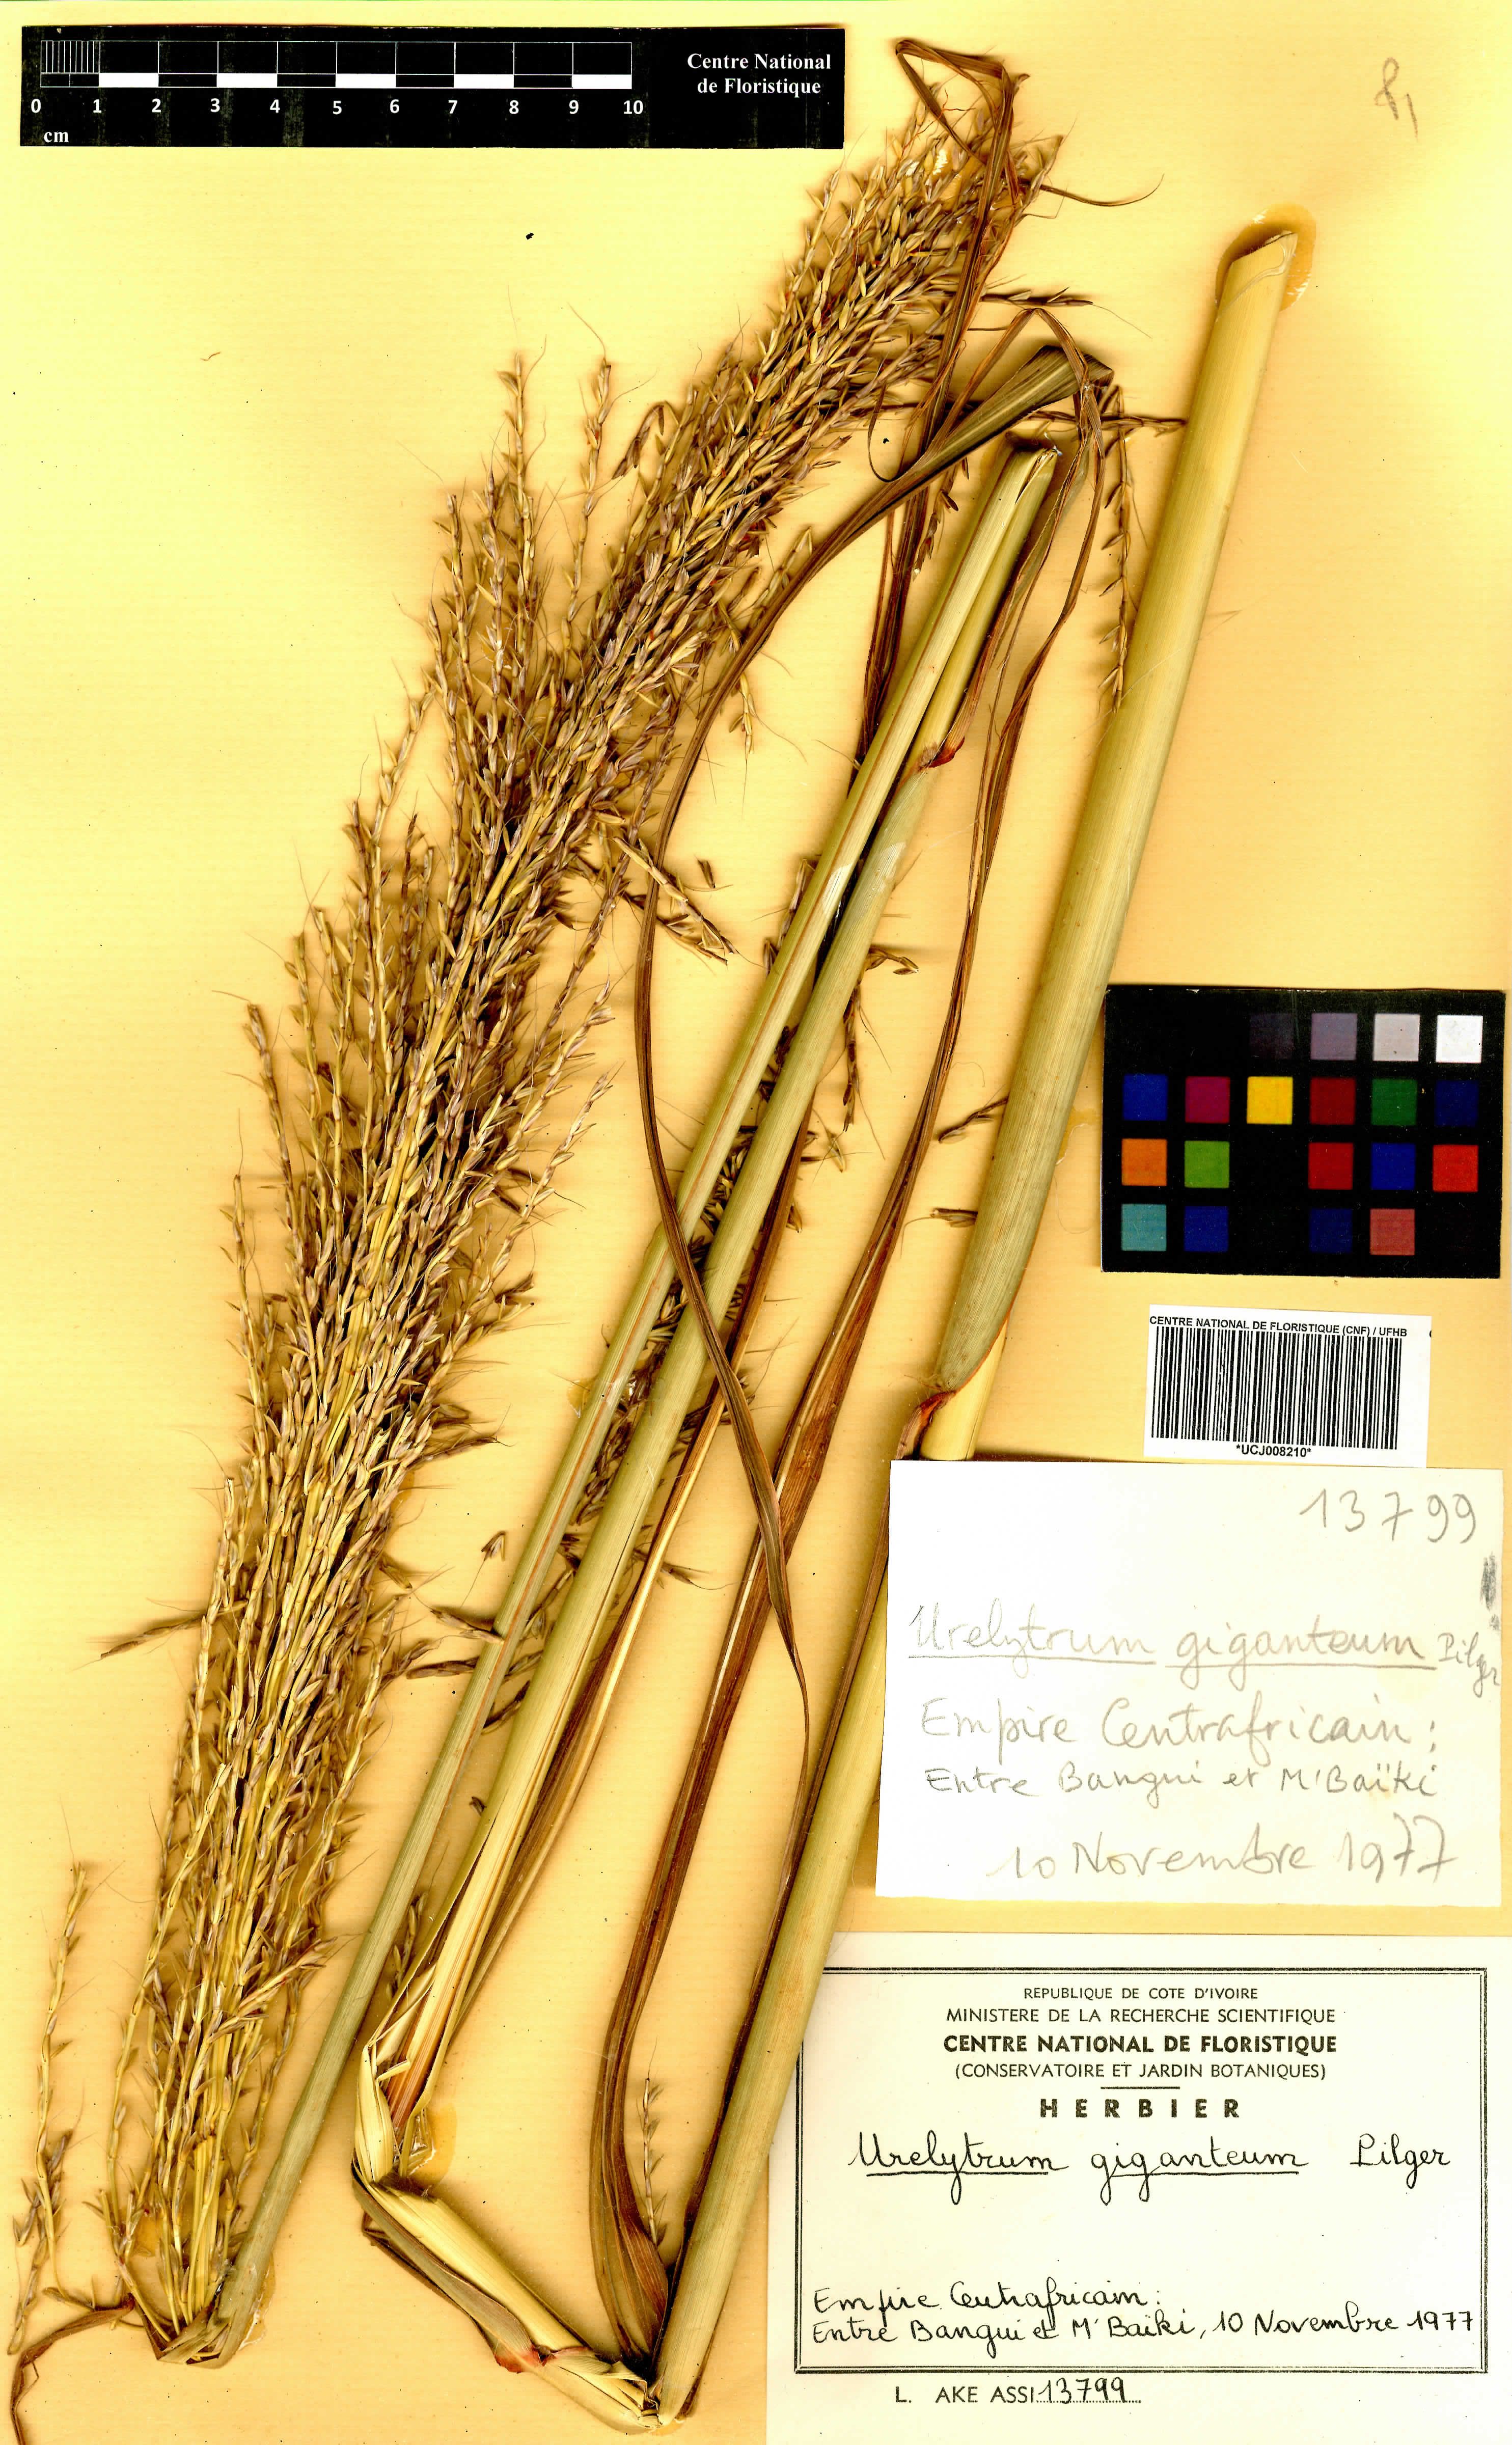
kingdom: Plantae
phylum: Tracheophyta
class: Liliopsida
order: Poales
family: Poaceae
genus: Urelytrum
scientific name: Urelytrum giganteum
